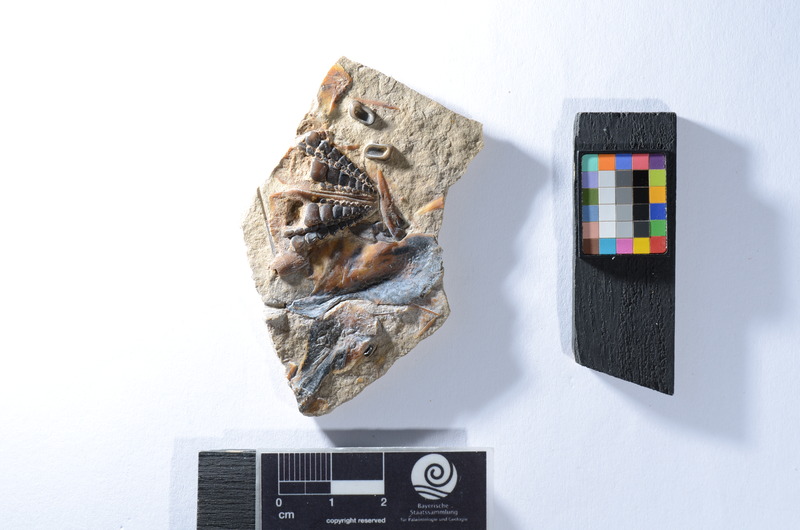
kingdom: Animalia
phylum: Chordata
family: Pycnodontidae
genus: Proscinetes
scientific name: Proscinetes elegans
